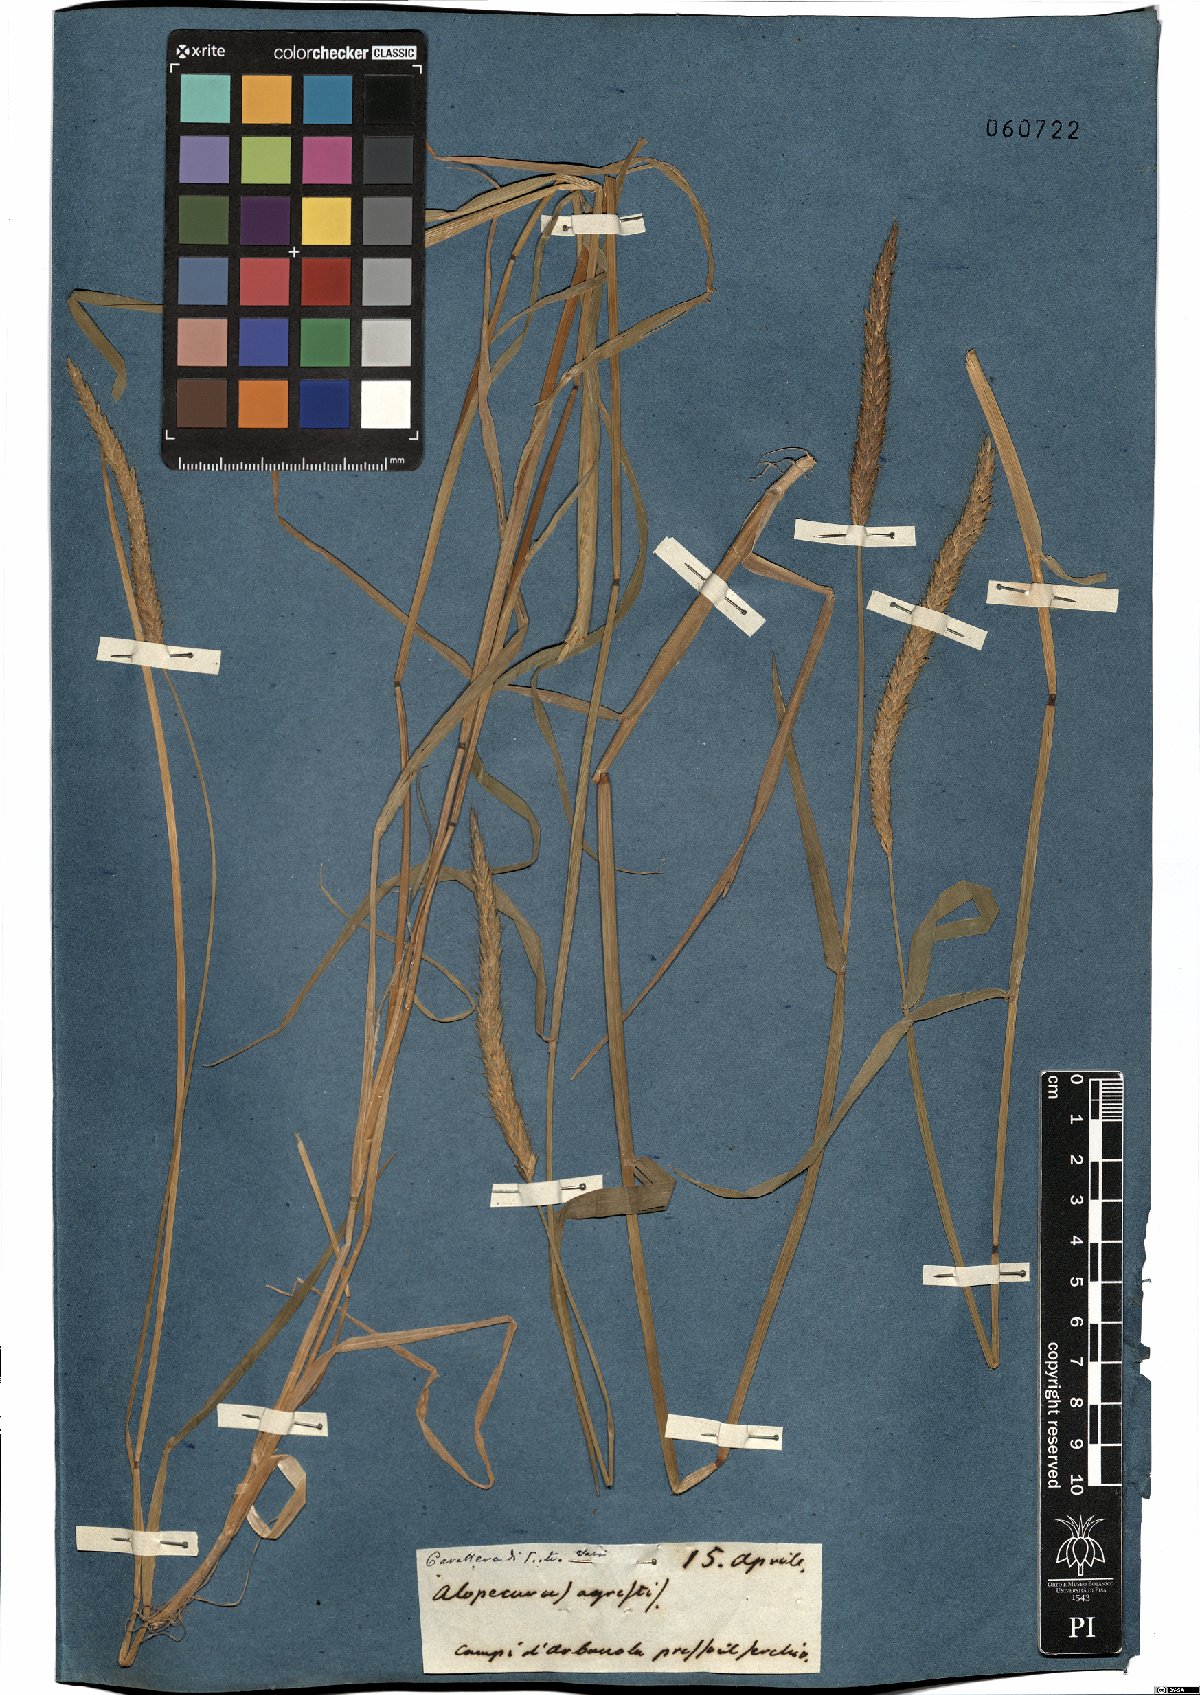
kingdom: Plantae
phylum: Tracheophyta
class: Liliopsida
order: Poales
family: Poaceae
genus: Alopecurus
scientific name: Alopecurus myosuroides
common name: Black-grass
